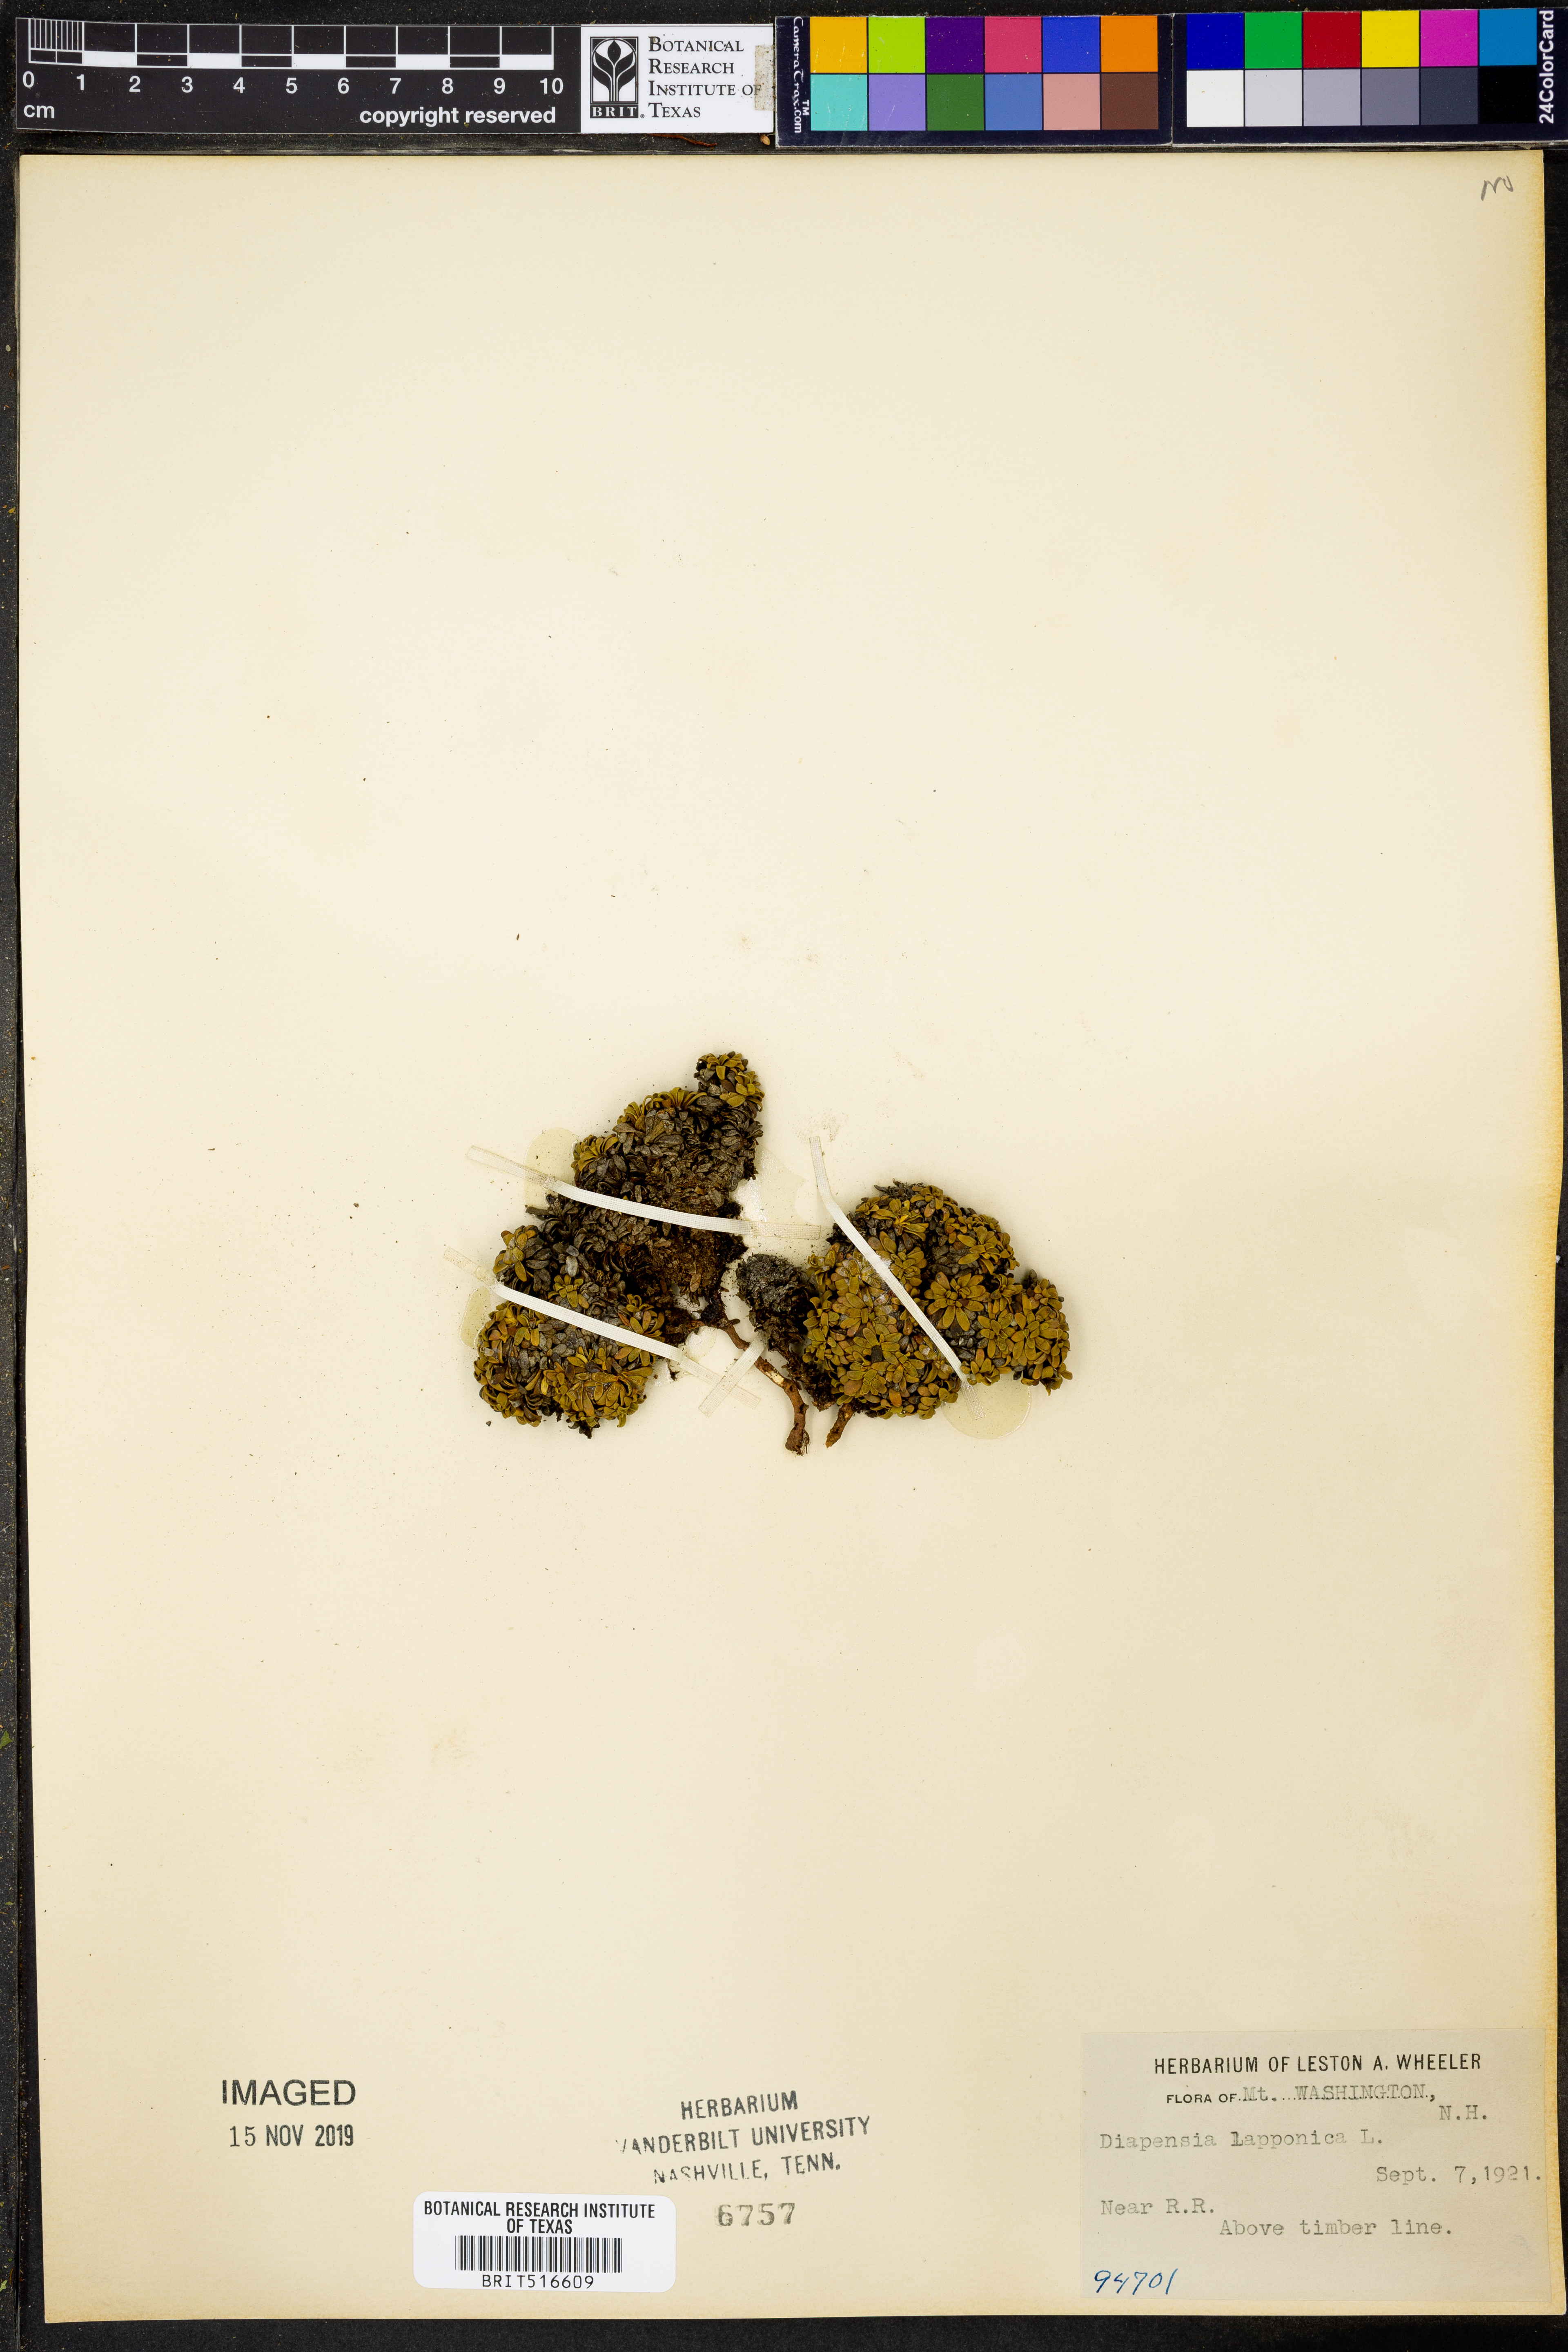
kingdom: Plantae
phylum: Tracheophyta
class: Magnoliopsida
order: Ericales
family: Diapensiaceae
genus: Diapensia
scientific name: Diapensia lapponica
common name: Diapensia
